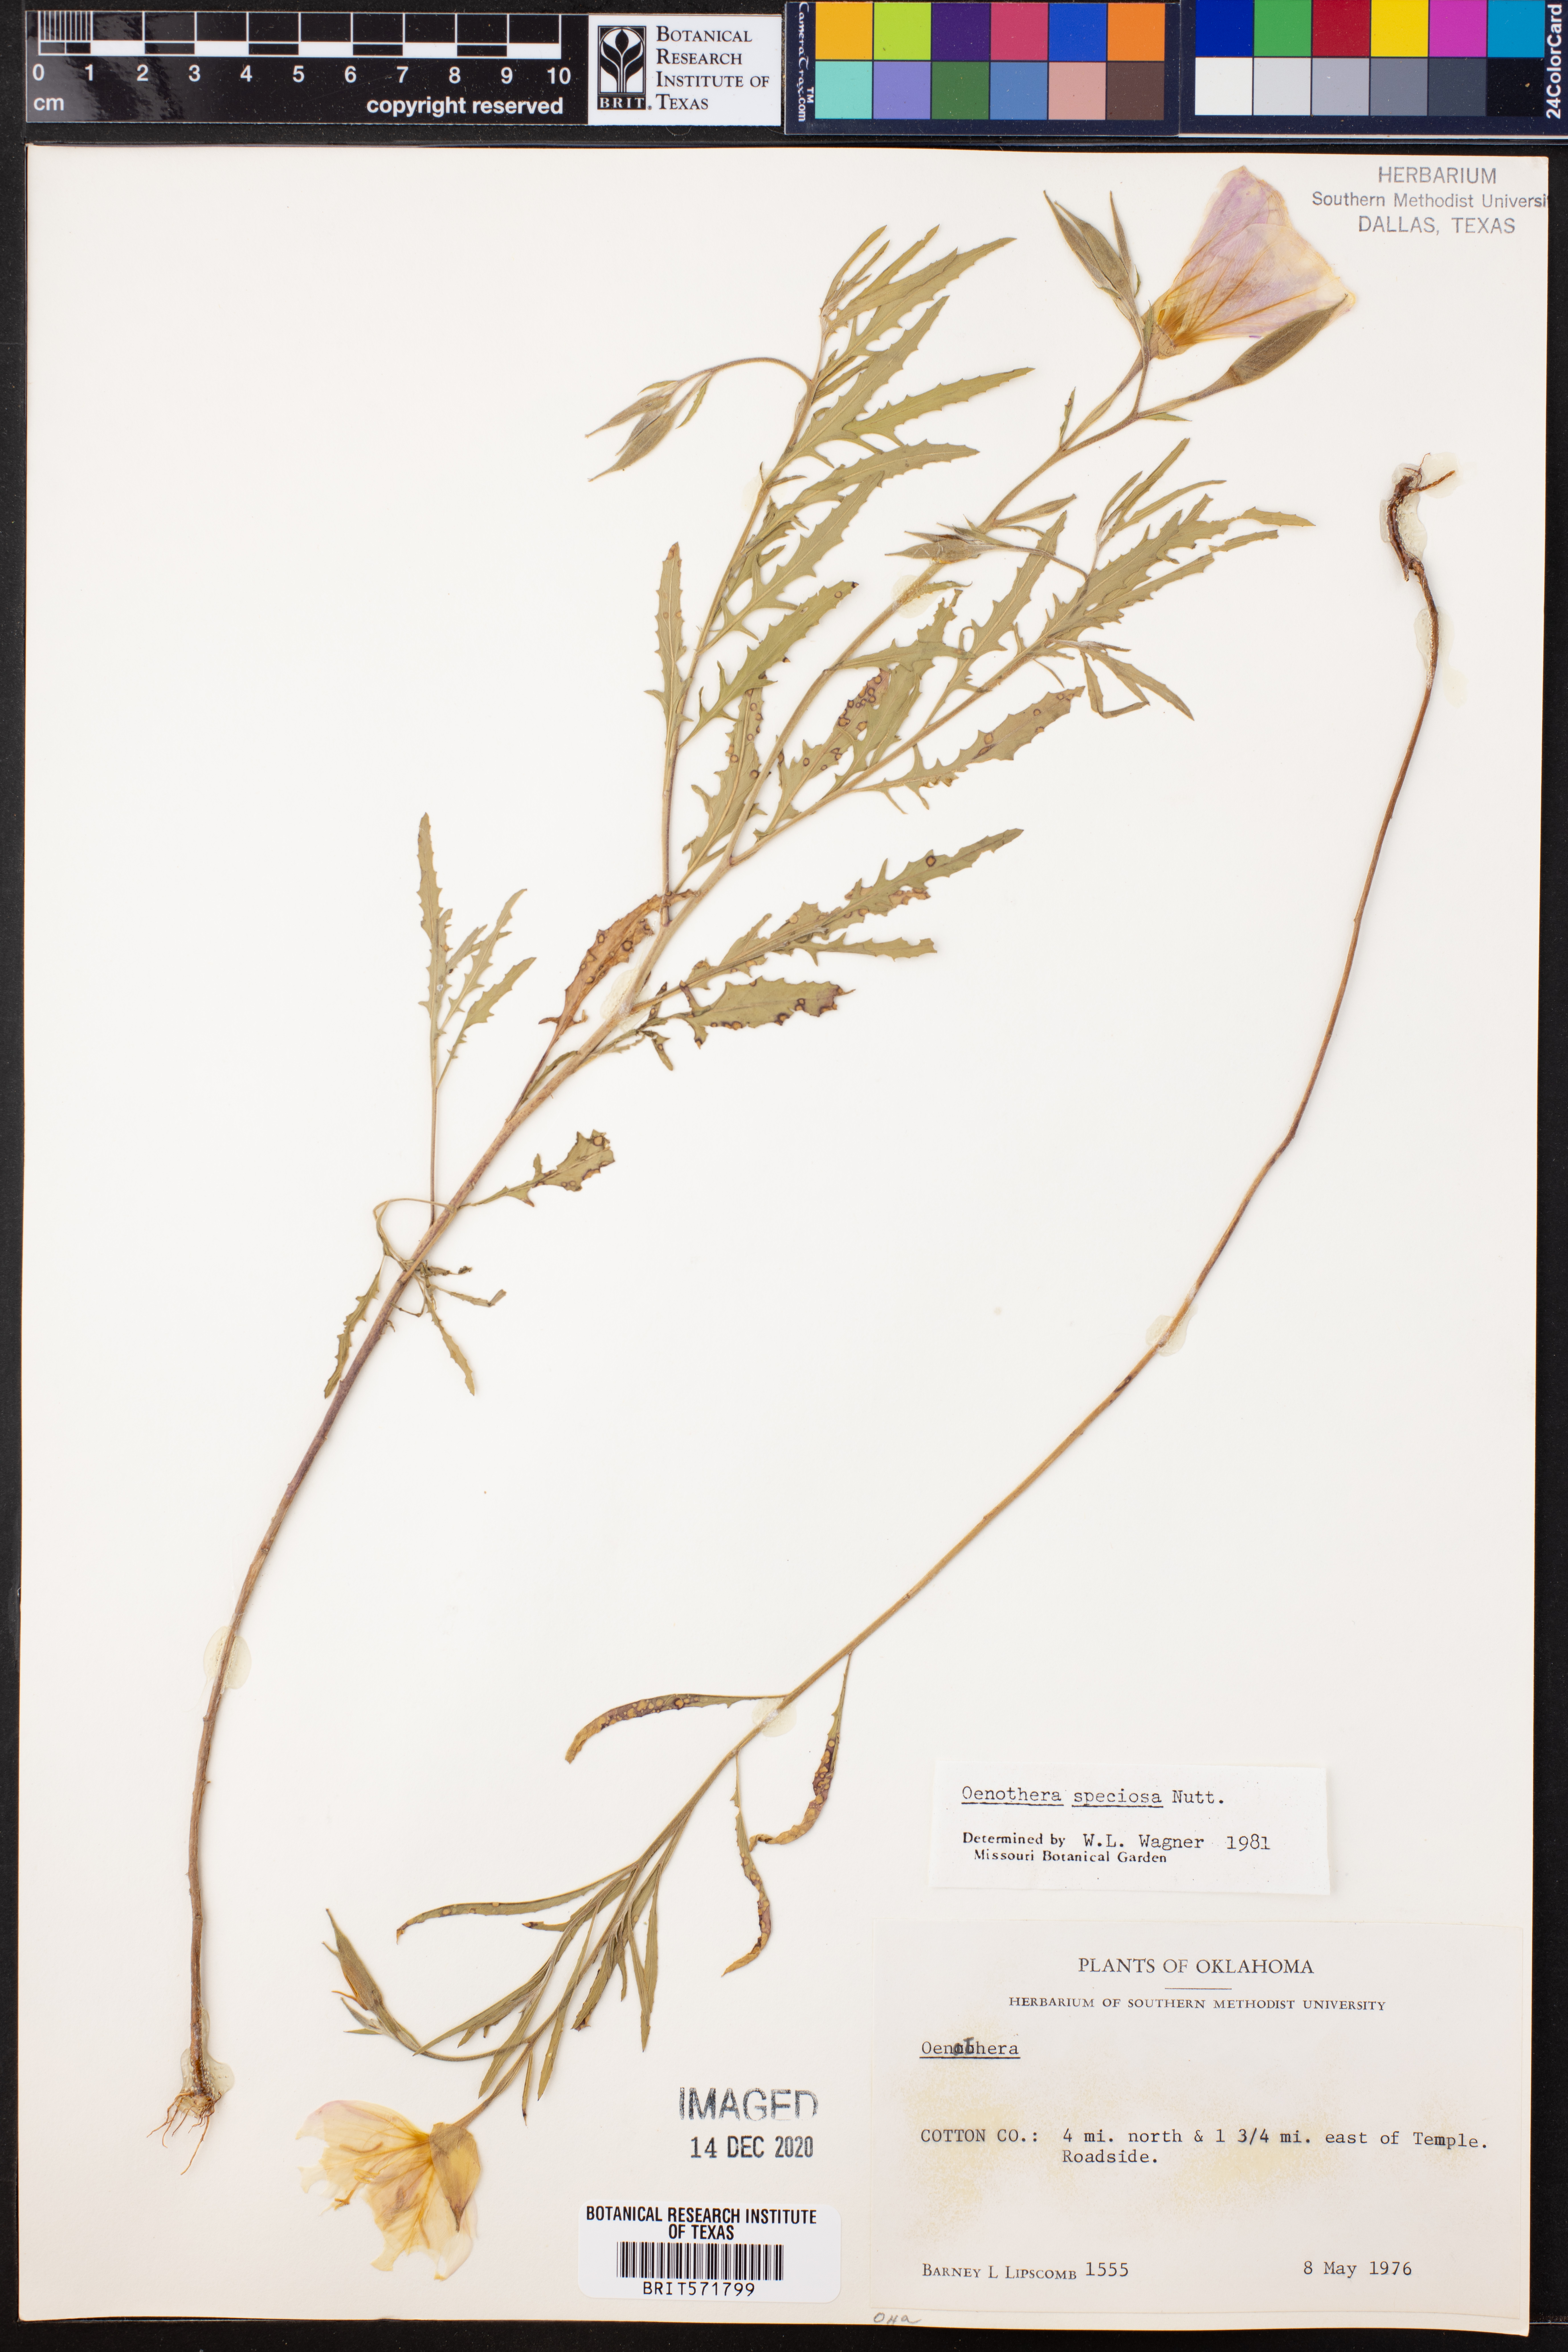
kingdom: Plantae
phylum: Tracheophyta
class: Magnoliopsida
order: Myrtales
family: Onagraceae
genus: Oenothera
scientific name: Oenothera speciosa
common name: White evening-primrose
